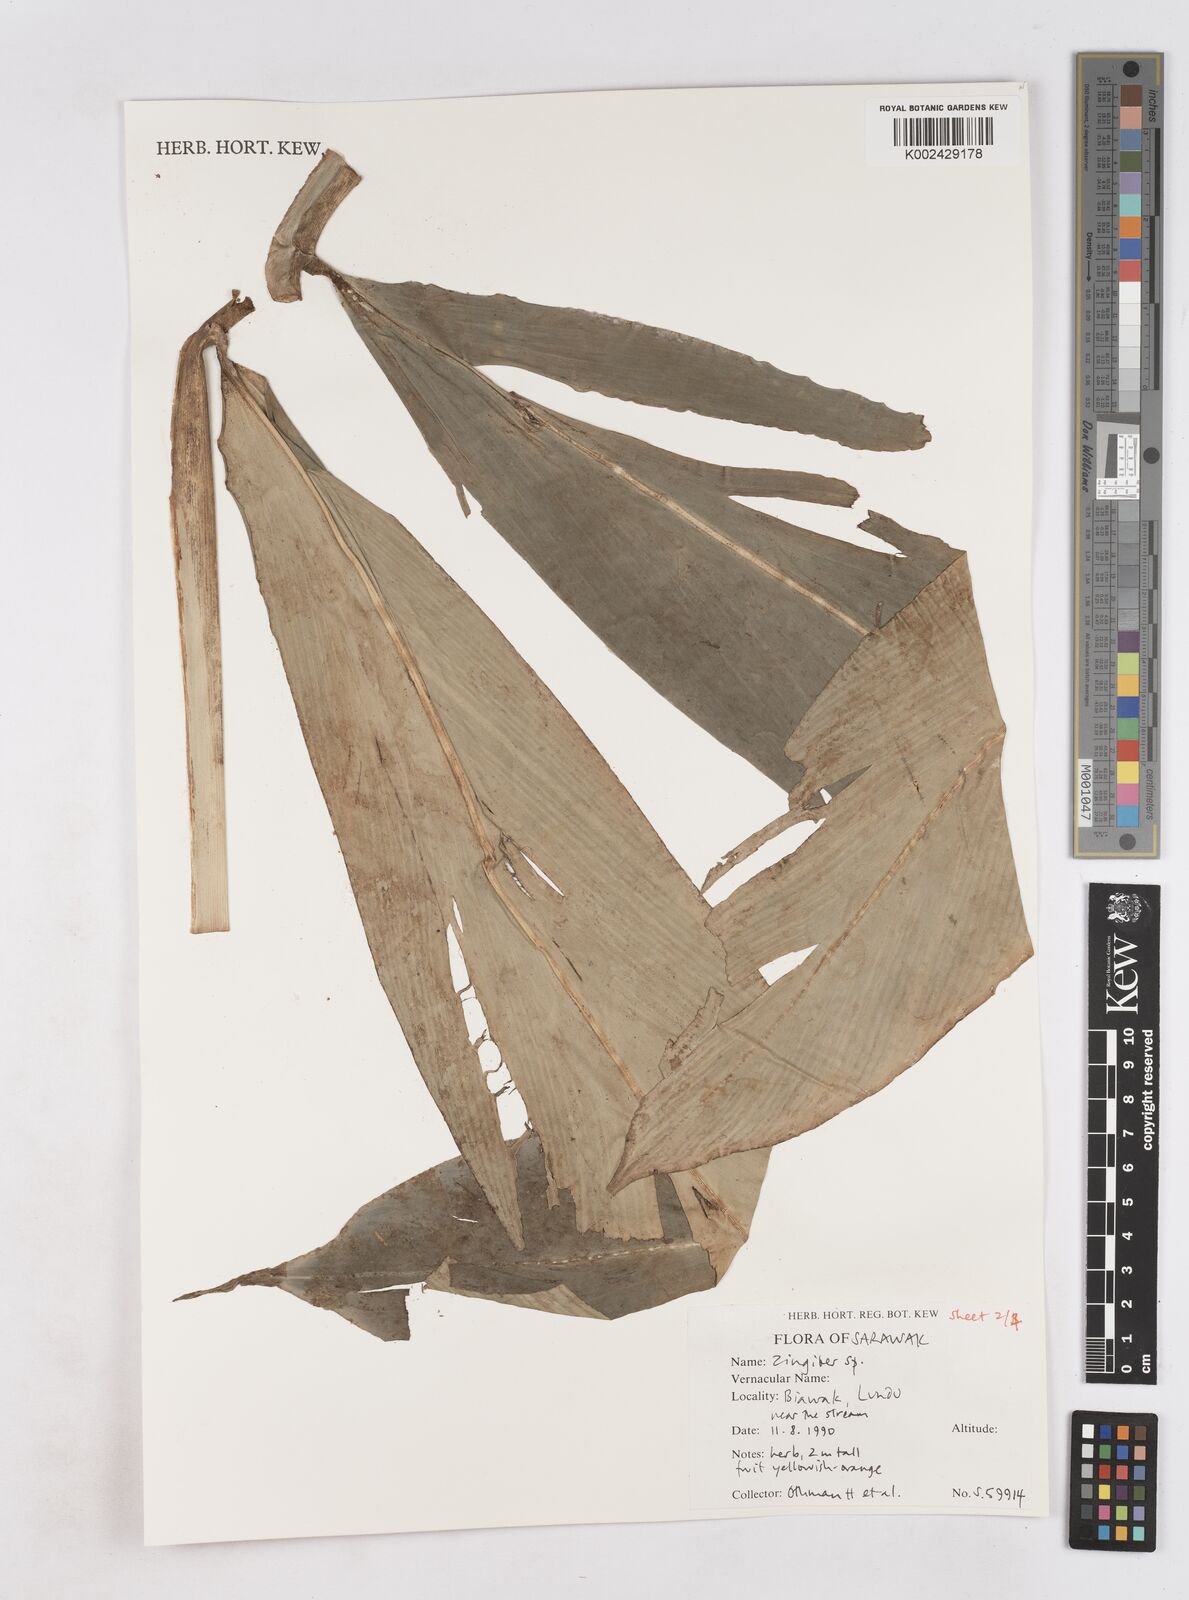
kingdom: Plantae
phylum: Tracheophyta
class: Liliopsida
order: Zingiberales
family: Zingiberaceae
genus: Zingiber
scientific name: Zingiber
